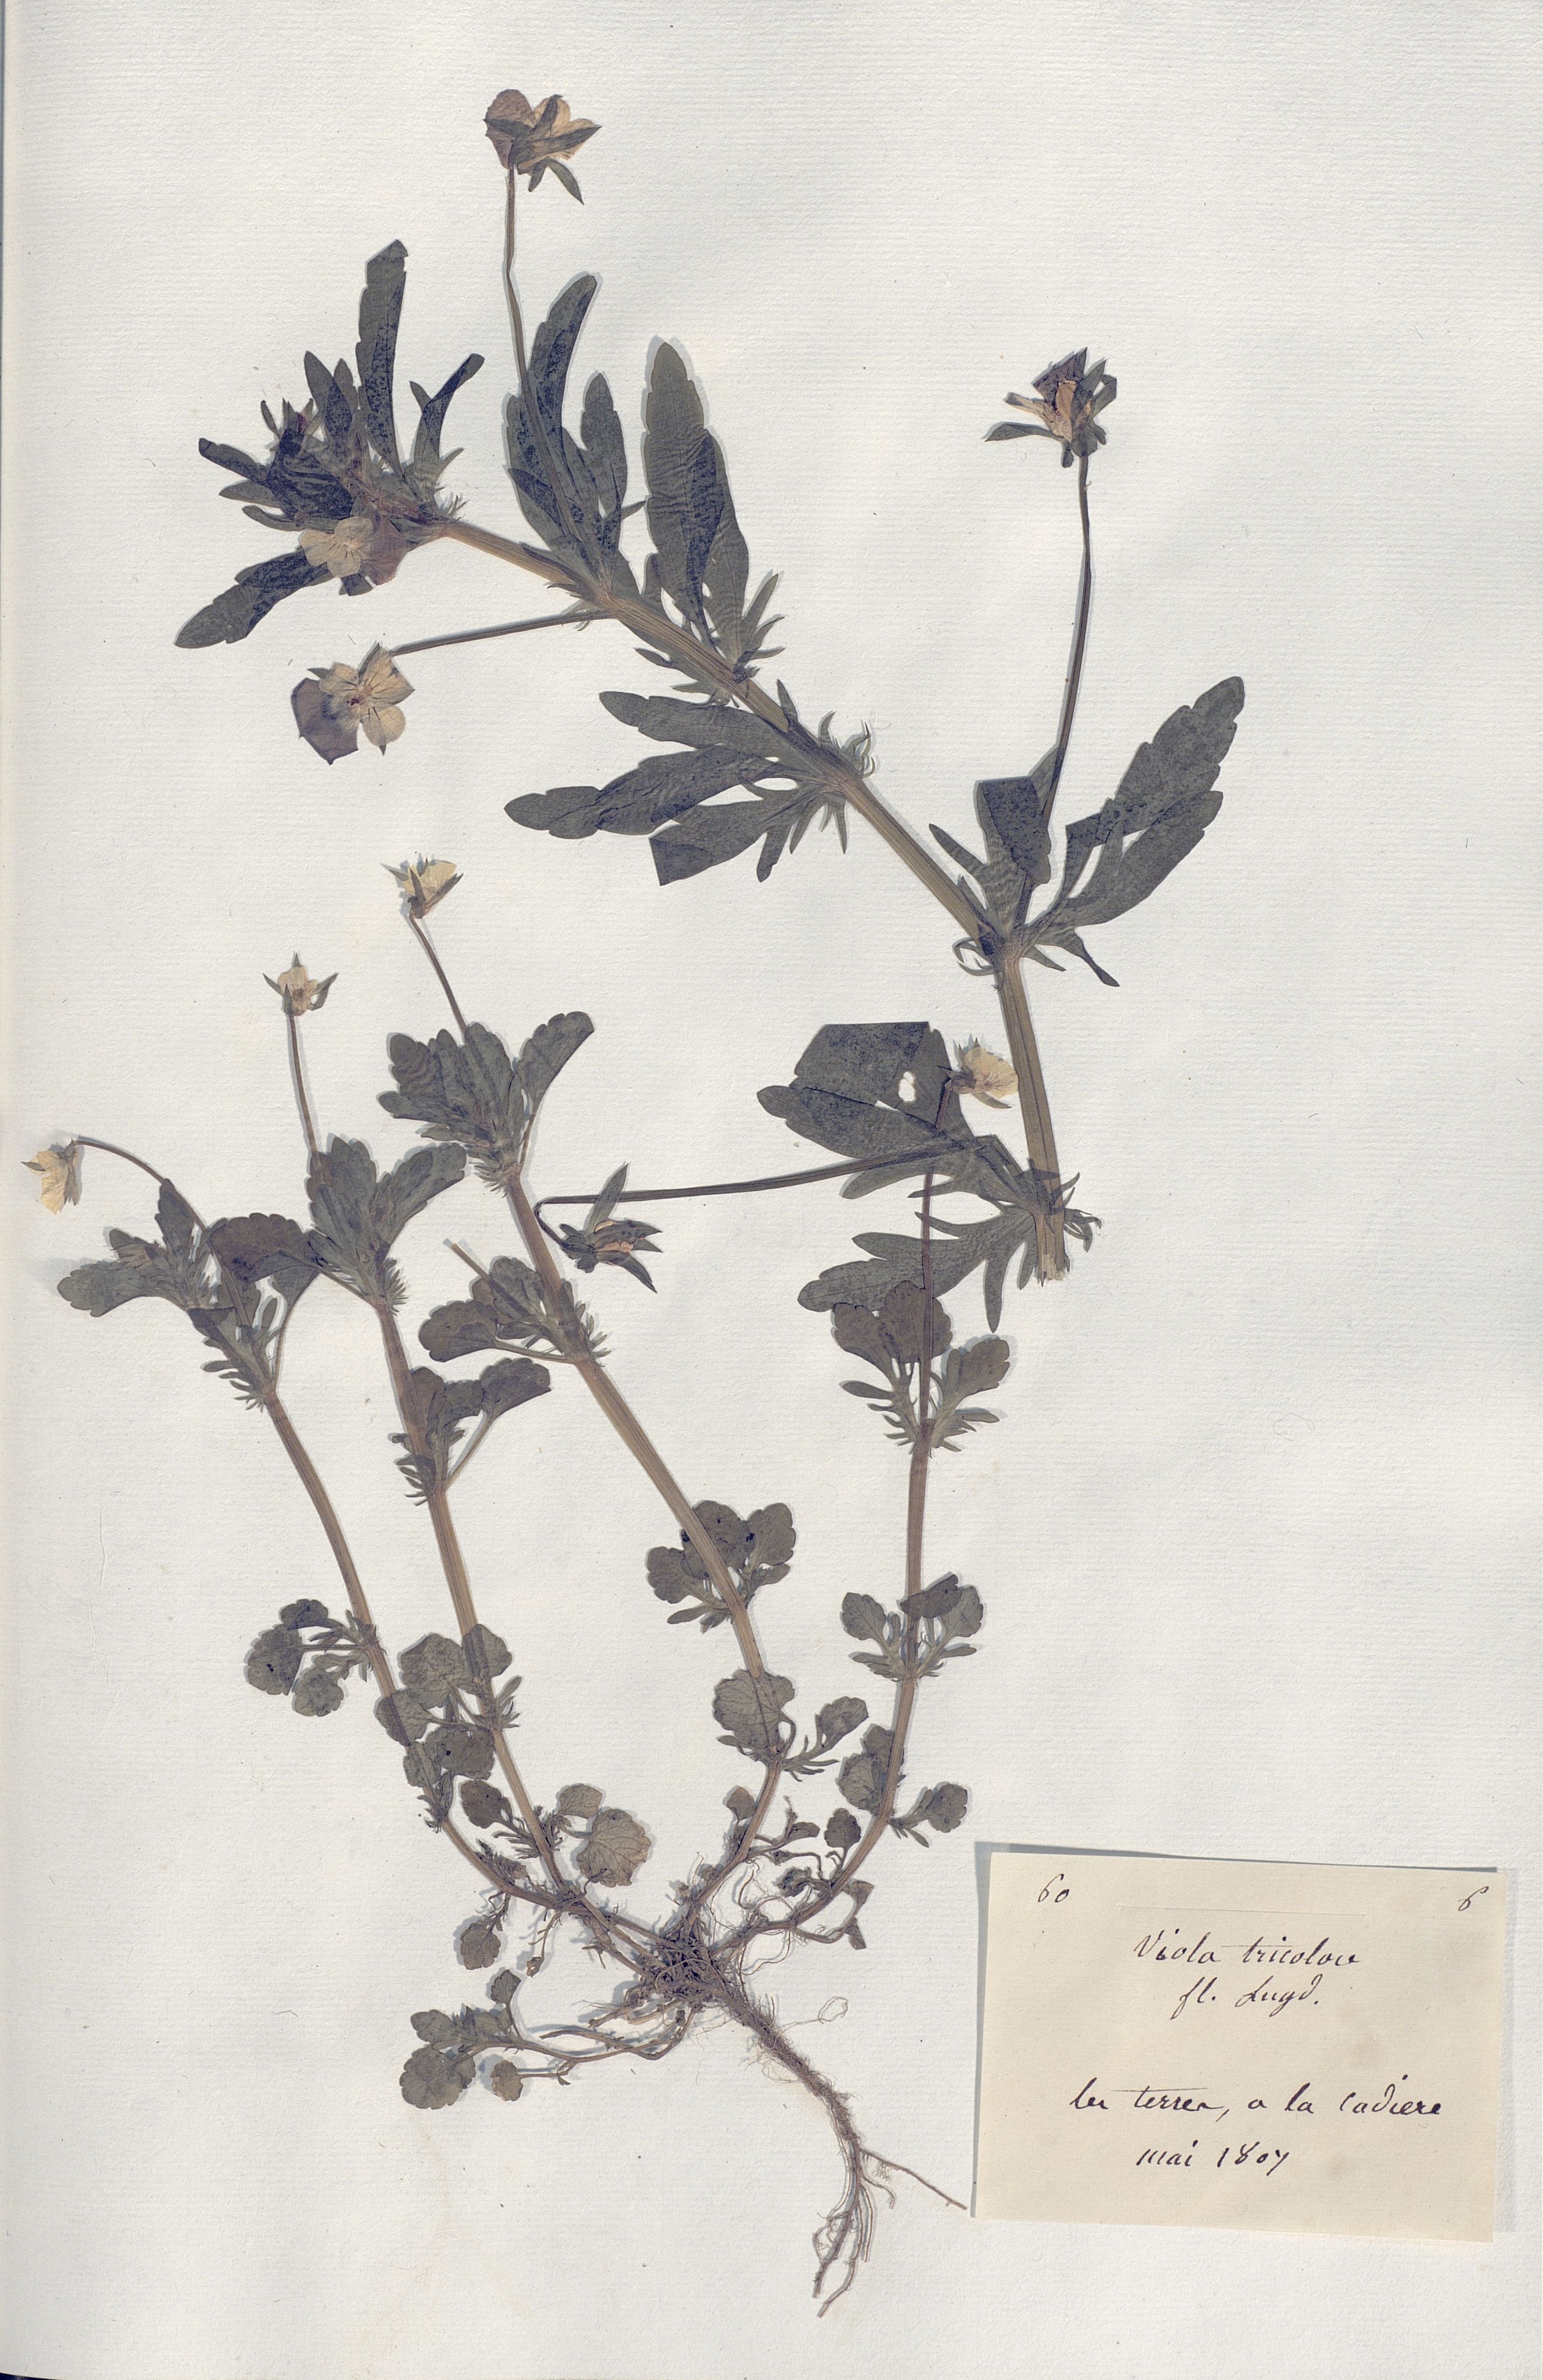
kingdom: Plantae
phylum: Tracheophyta
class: Magnoliopsida
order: Malpighiales
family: Violaceae
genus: Viola
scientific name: Viola tricolor
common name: Pansy
